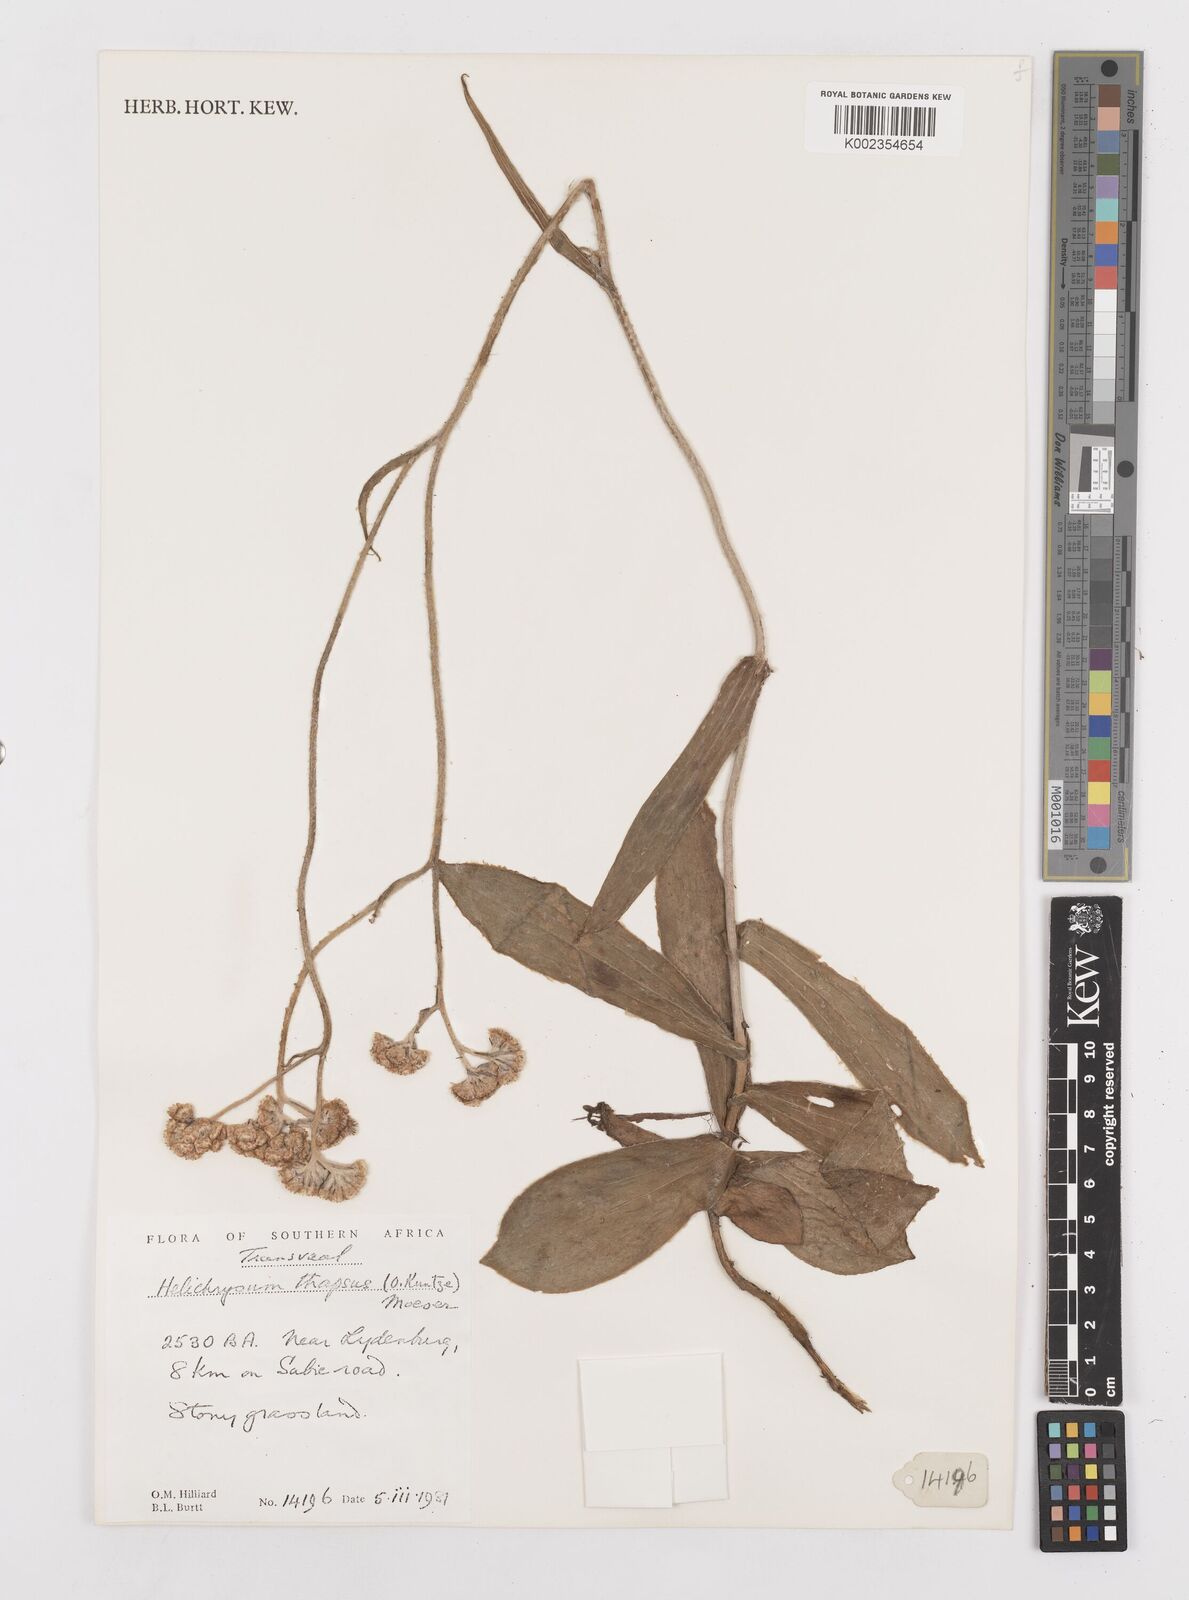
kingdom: Plantae
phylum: Tracheophyta
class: Magnoliopsida
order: Asterales
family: Asteraceae
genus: Helichrysum
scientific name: Helichrysum thapsus
